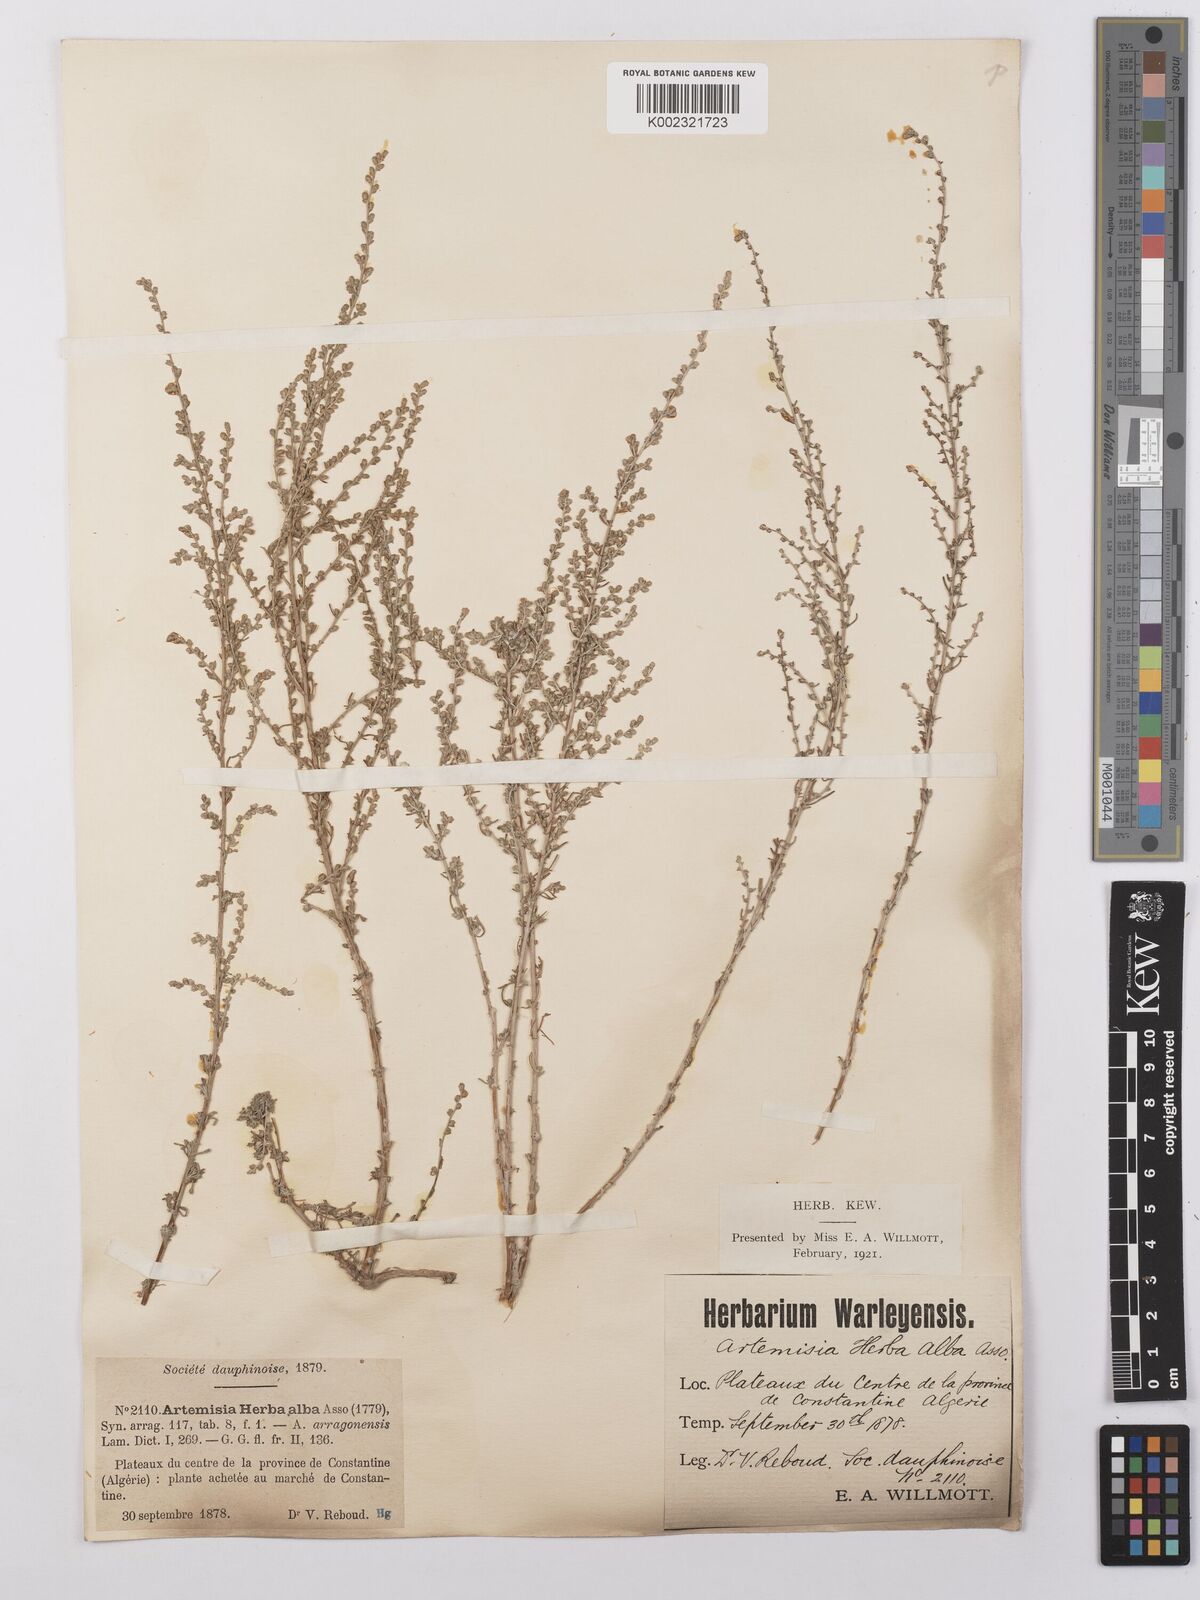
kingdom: Plantae
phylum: Tracheophyta
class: Magnoliopsida
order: Asterales
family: Asteraceae
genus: Artemisia
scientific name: Artemisia herba-alba
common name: White wormwood
